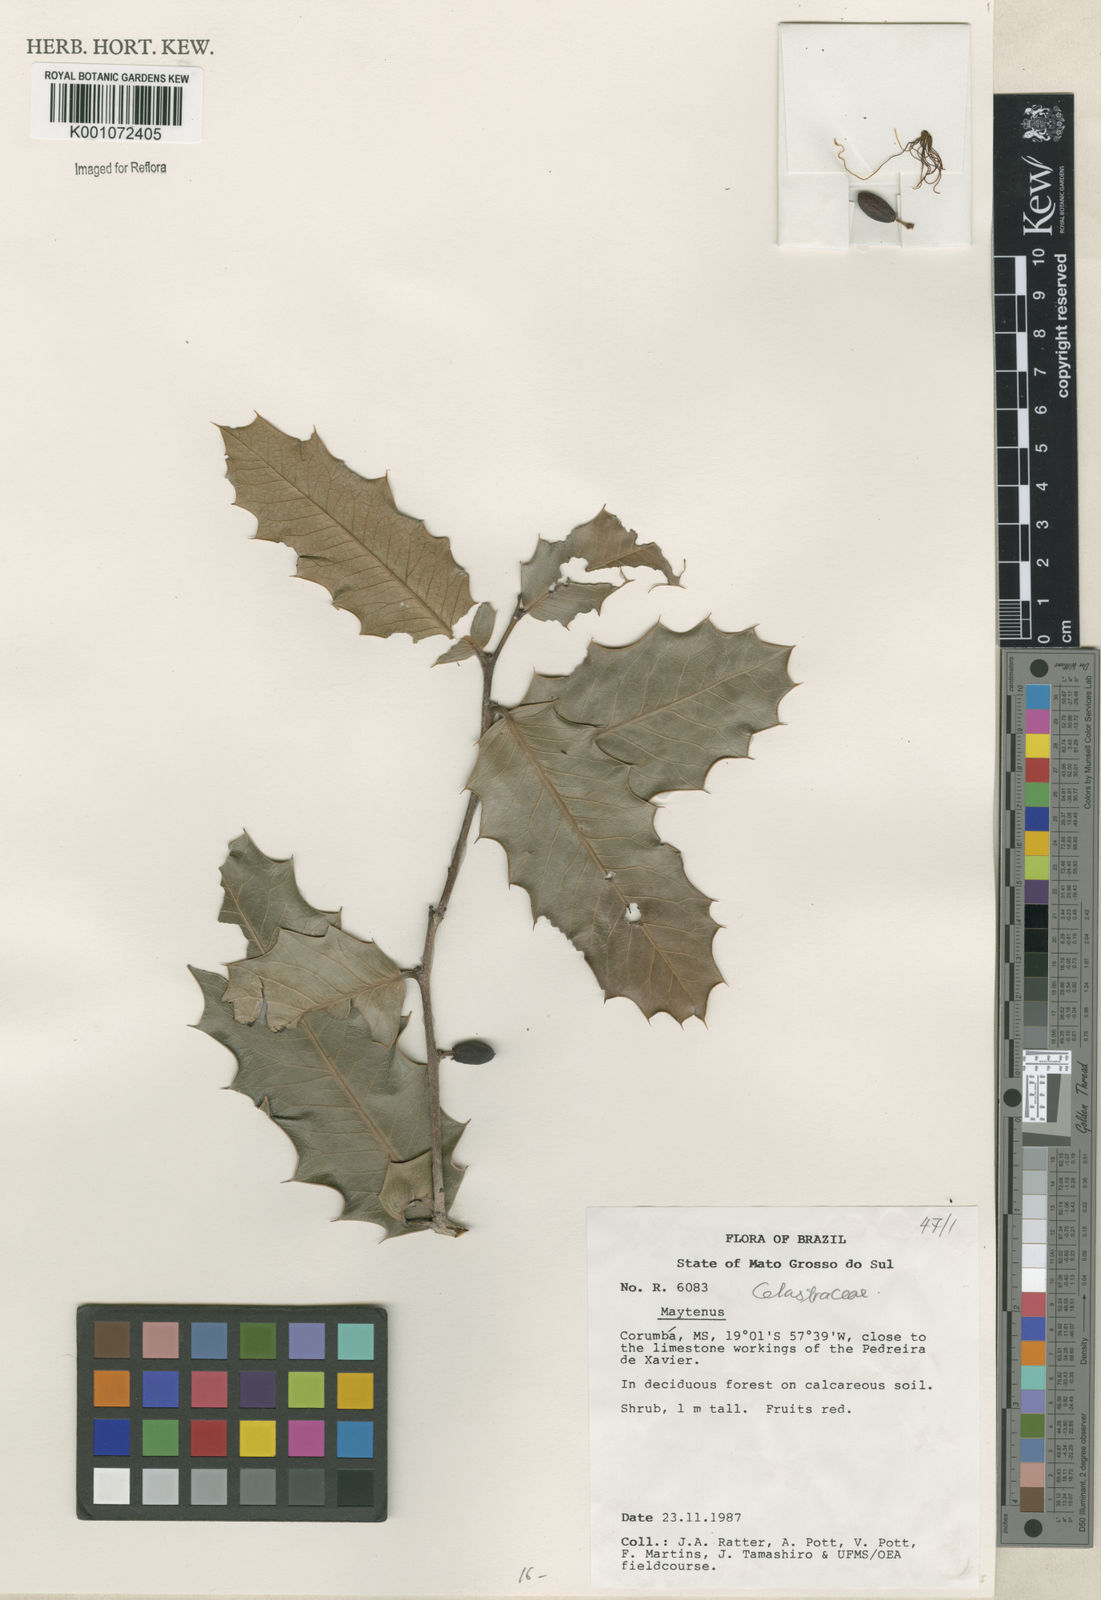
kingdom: Plantae
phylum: Tracheophyta
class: Magnoliopsida
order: Celastrales
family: Celastraceae
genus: Maytenus
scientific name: Maytenus
